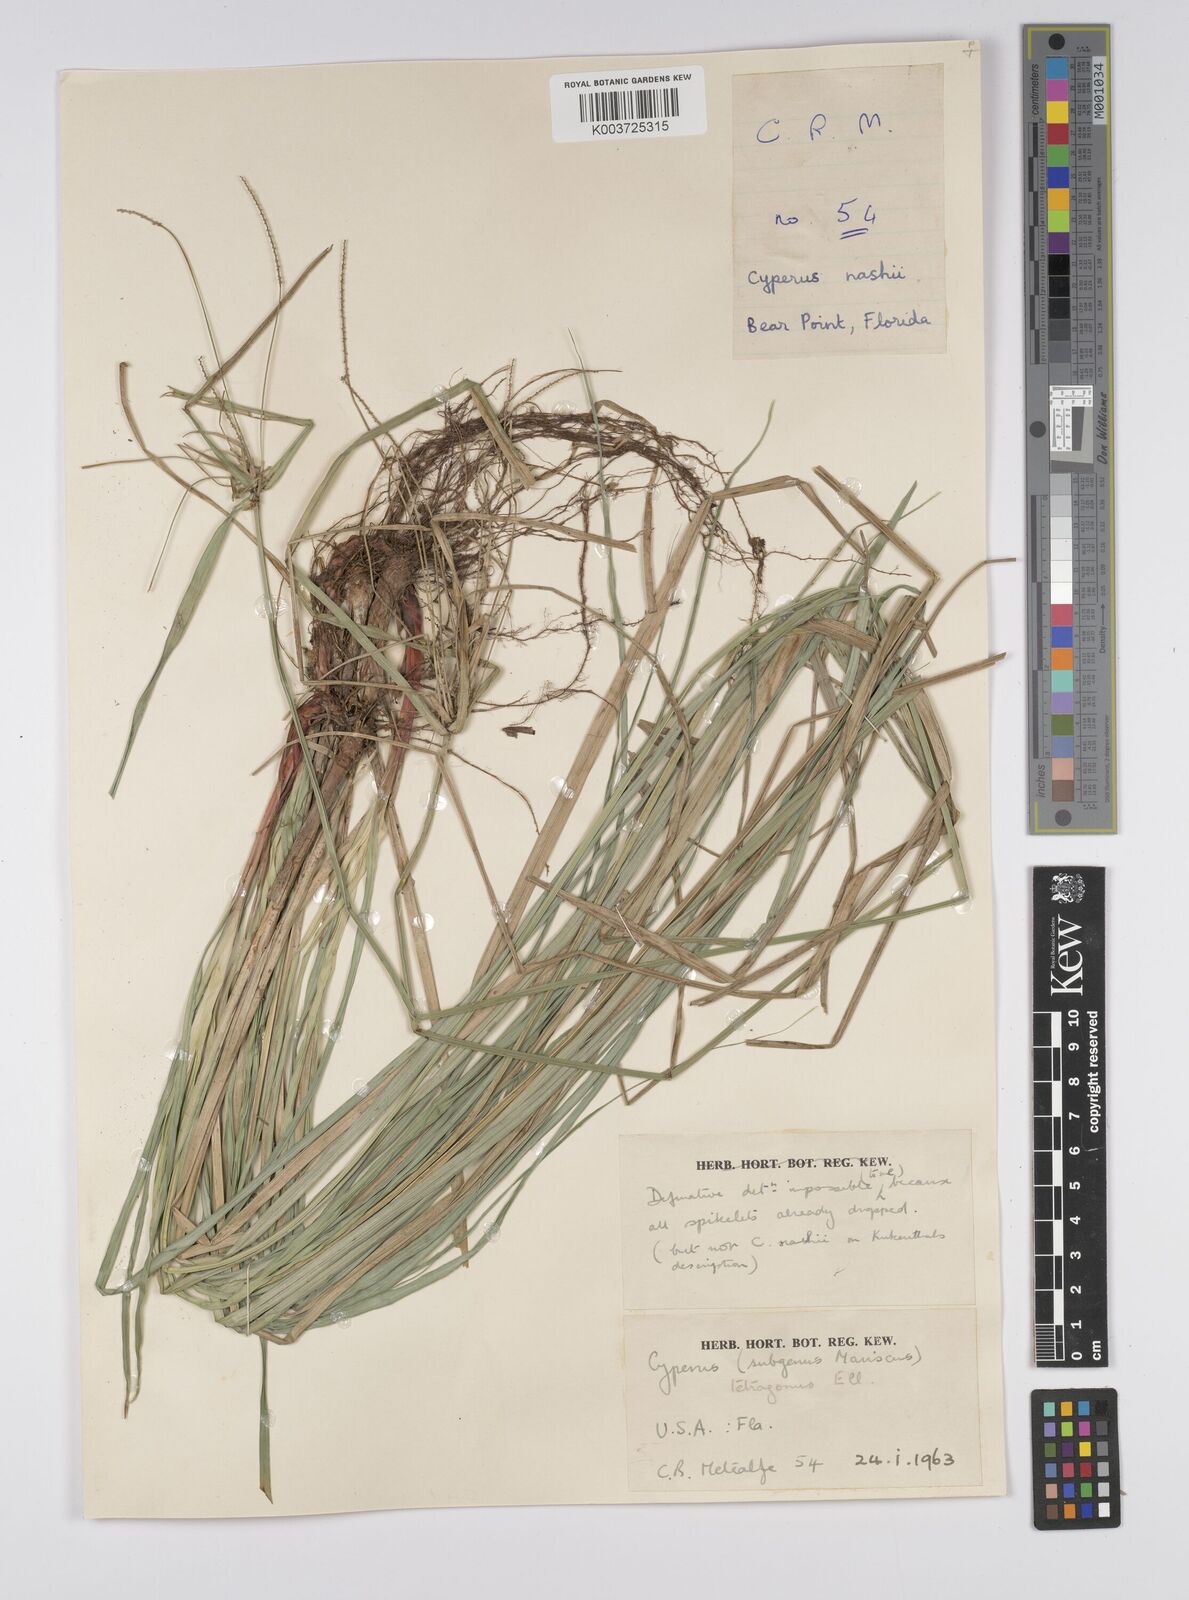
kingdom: Plantae
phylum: Tracheophyta
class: Liliopsida
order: Poales
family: Cyperaceae
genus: Cyperus
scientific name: Cyperus tetragonus
